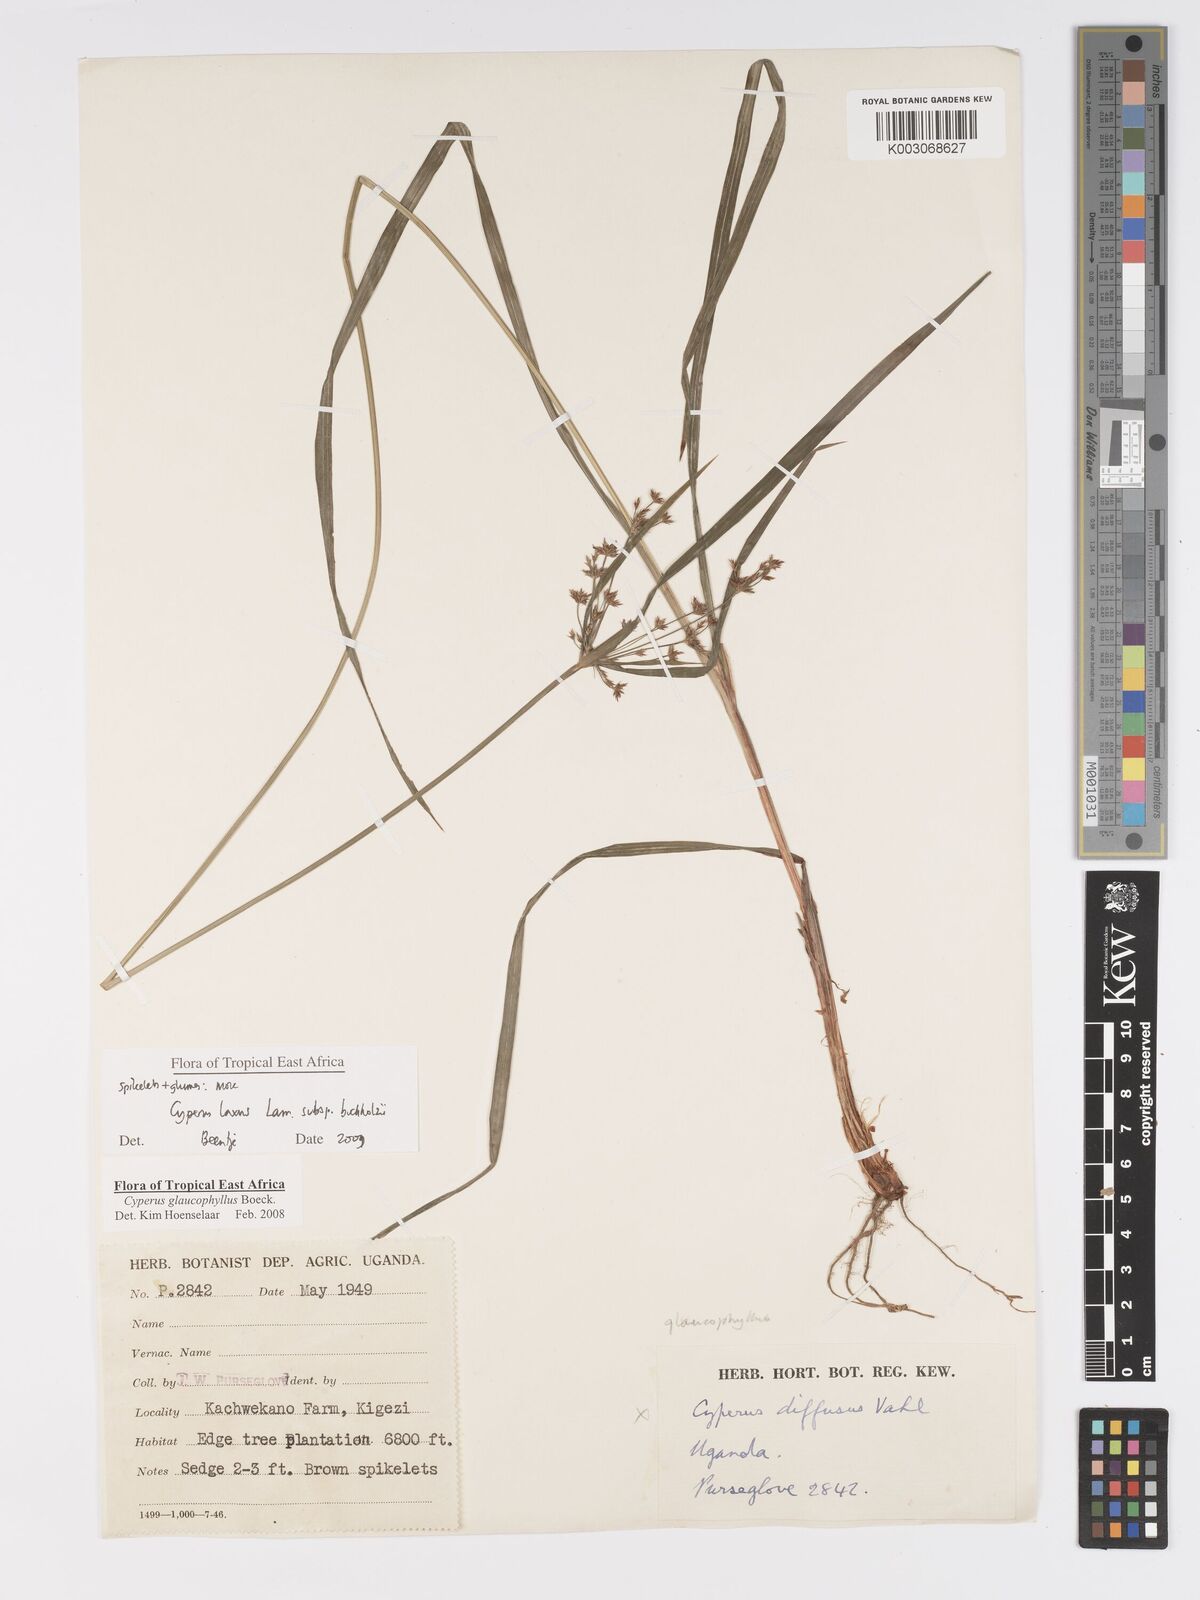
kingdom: Plantae
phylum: Tracheophyta
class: Liliopsida
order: Poales
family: Cyperaceae
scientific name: Cyperaceae
